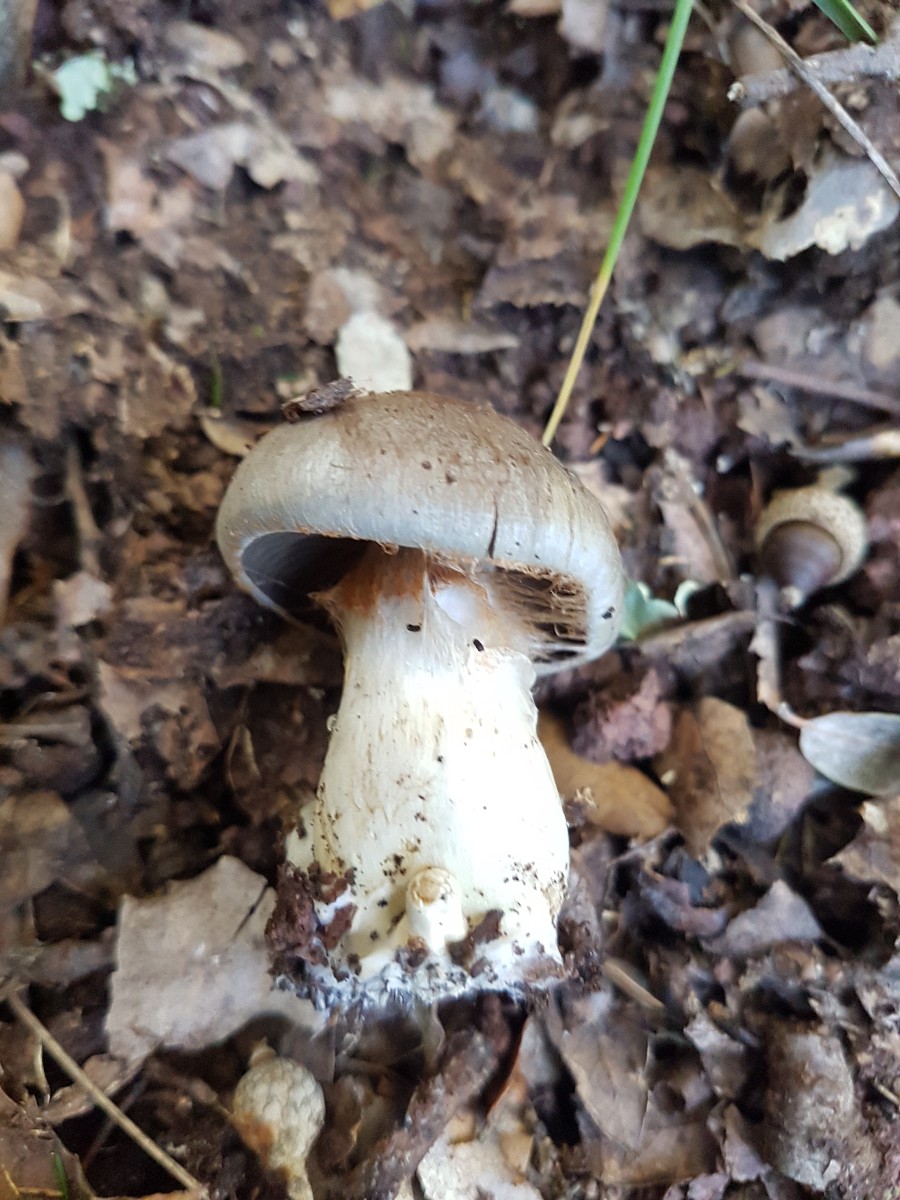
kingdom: Fungi
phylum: Basidiomycota
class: Agaricomycetes
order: Agaricales
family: Cortinariaceae
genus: Cortinarius
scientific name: Cortinarius
